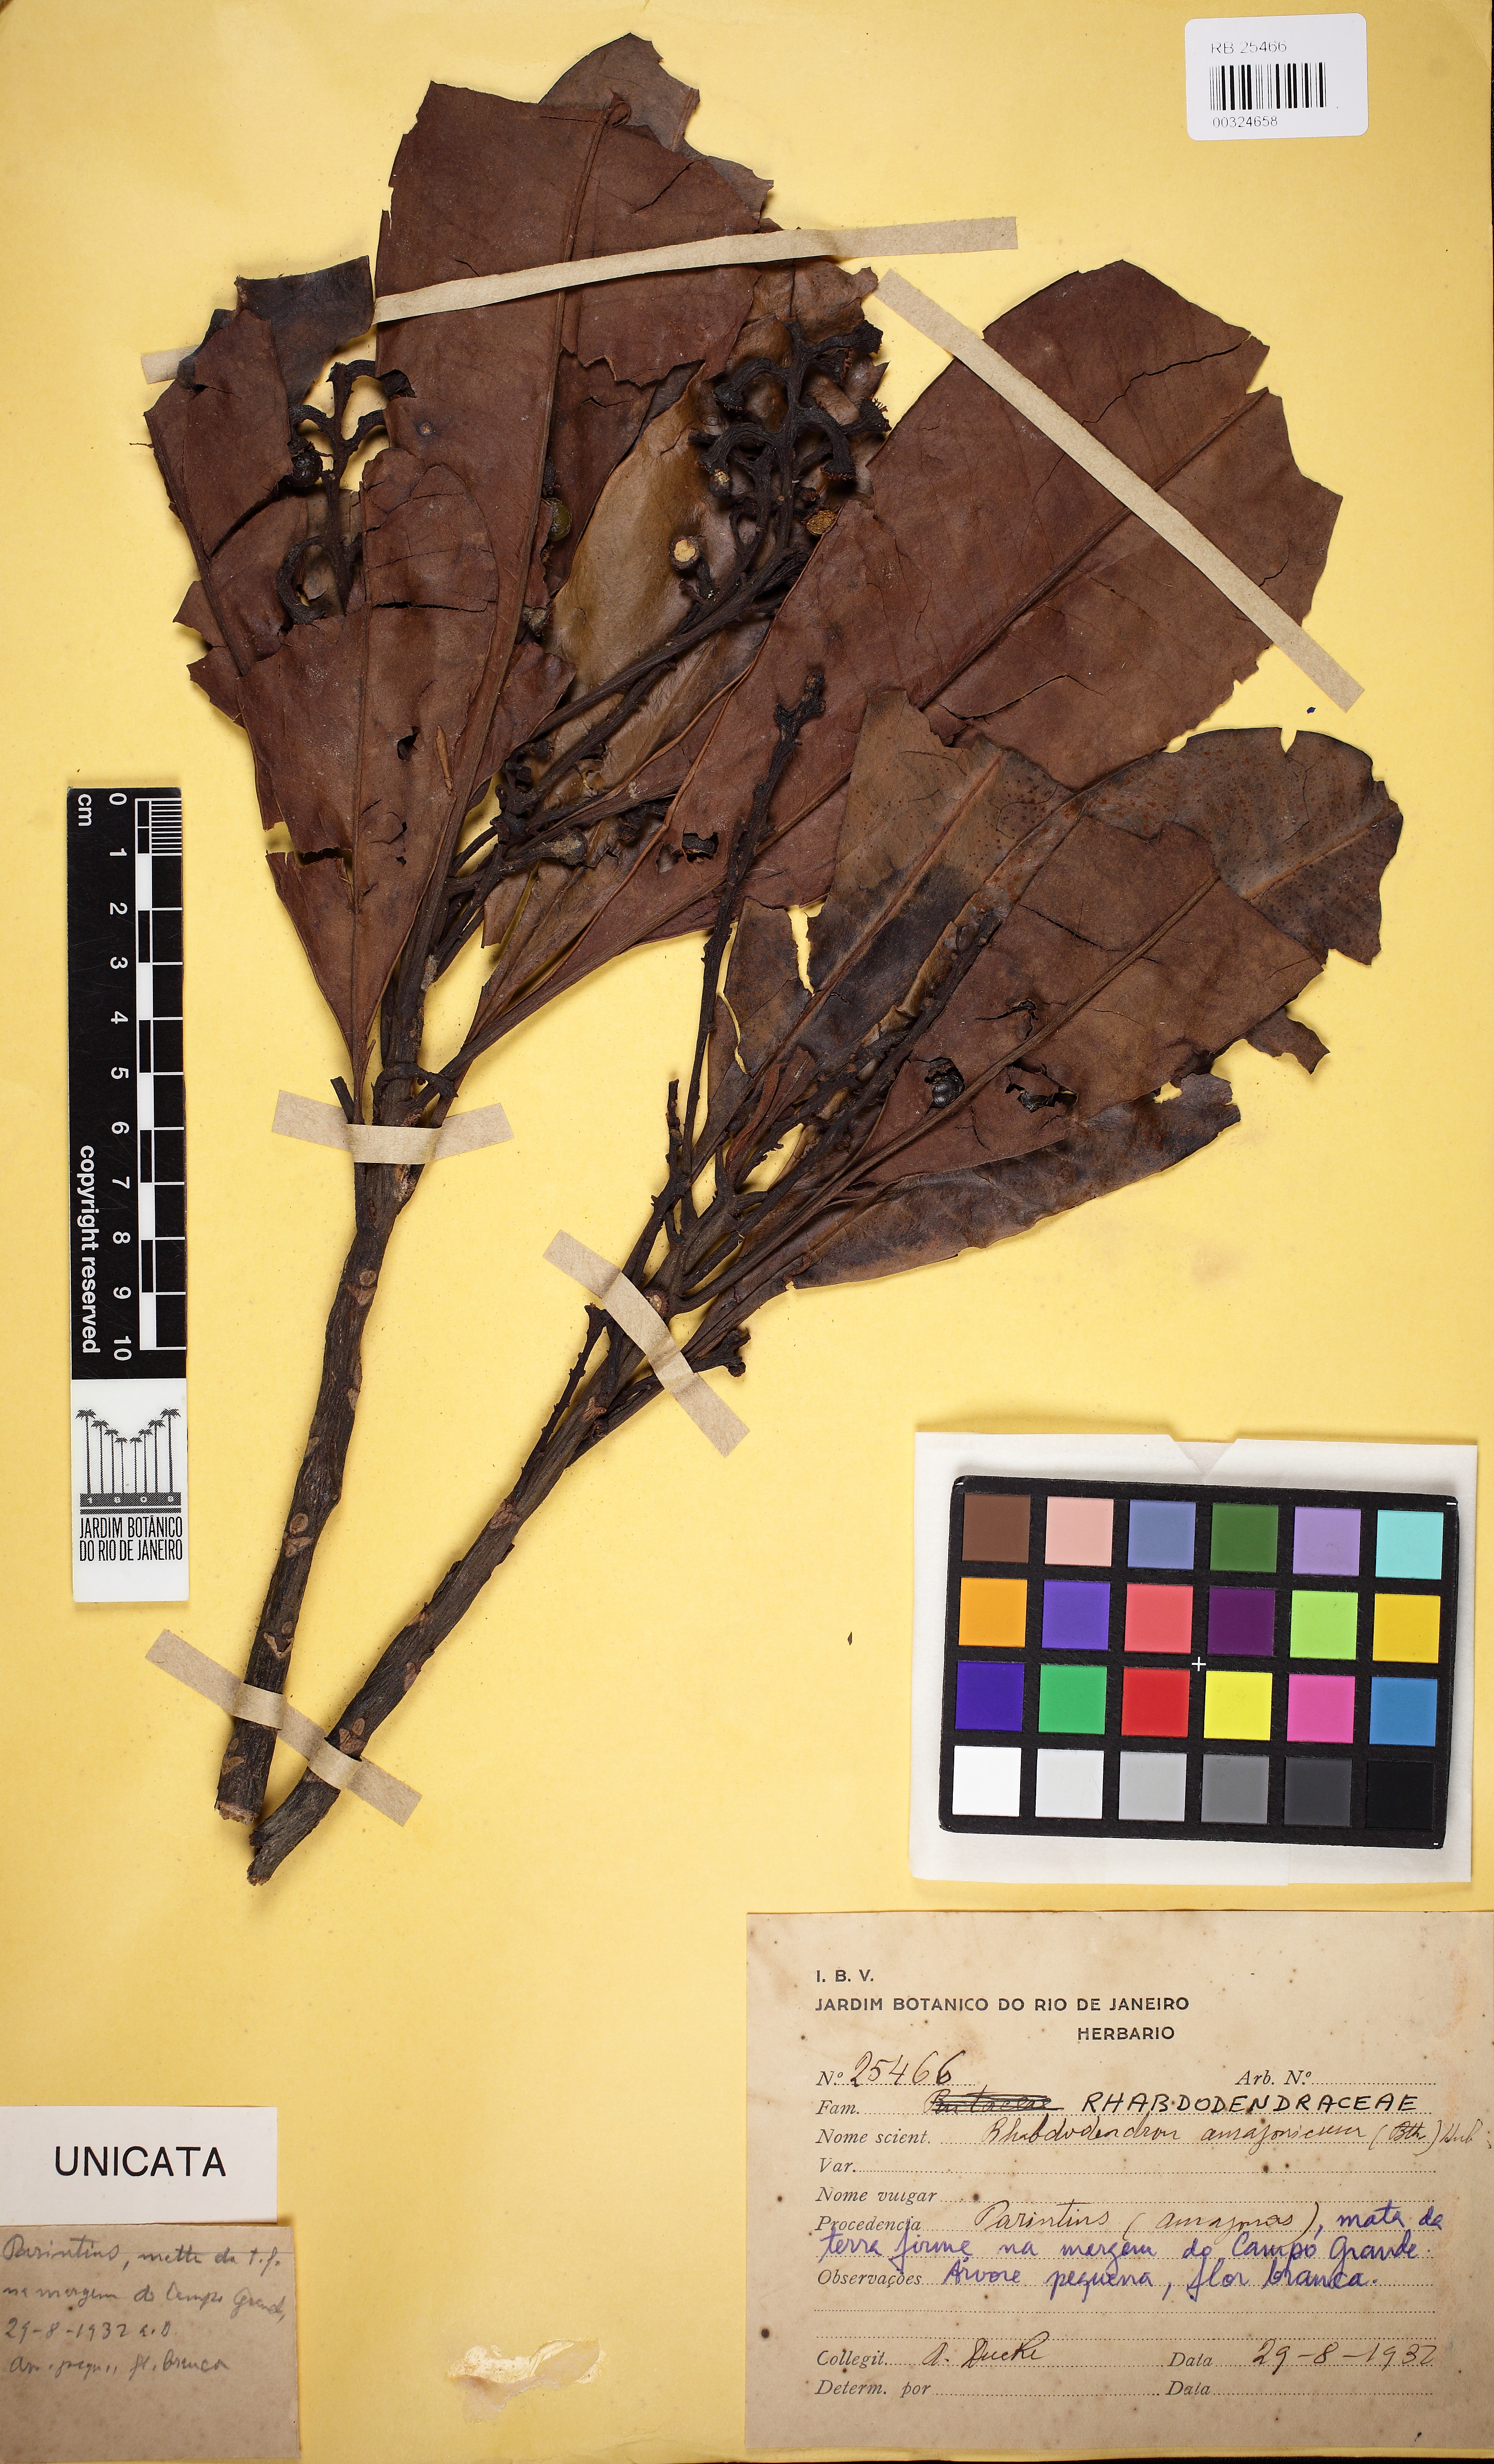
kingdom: Plantae
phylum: Tracheophyta
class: Magnoliopsida
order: Caryophyllales
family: Rhabdodendraceae
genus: Rhabdodendron
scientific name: Rhabdodendron amazonicum
